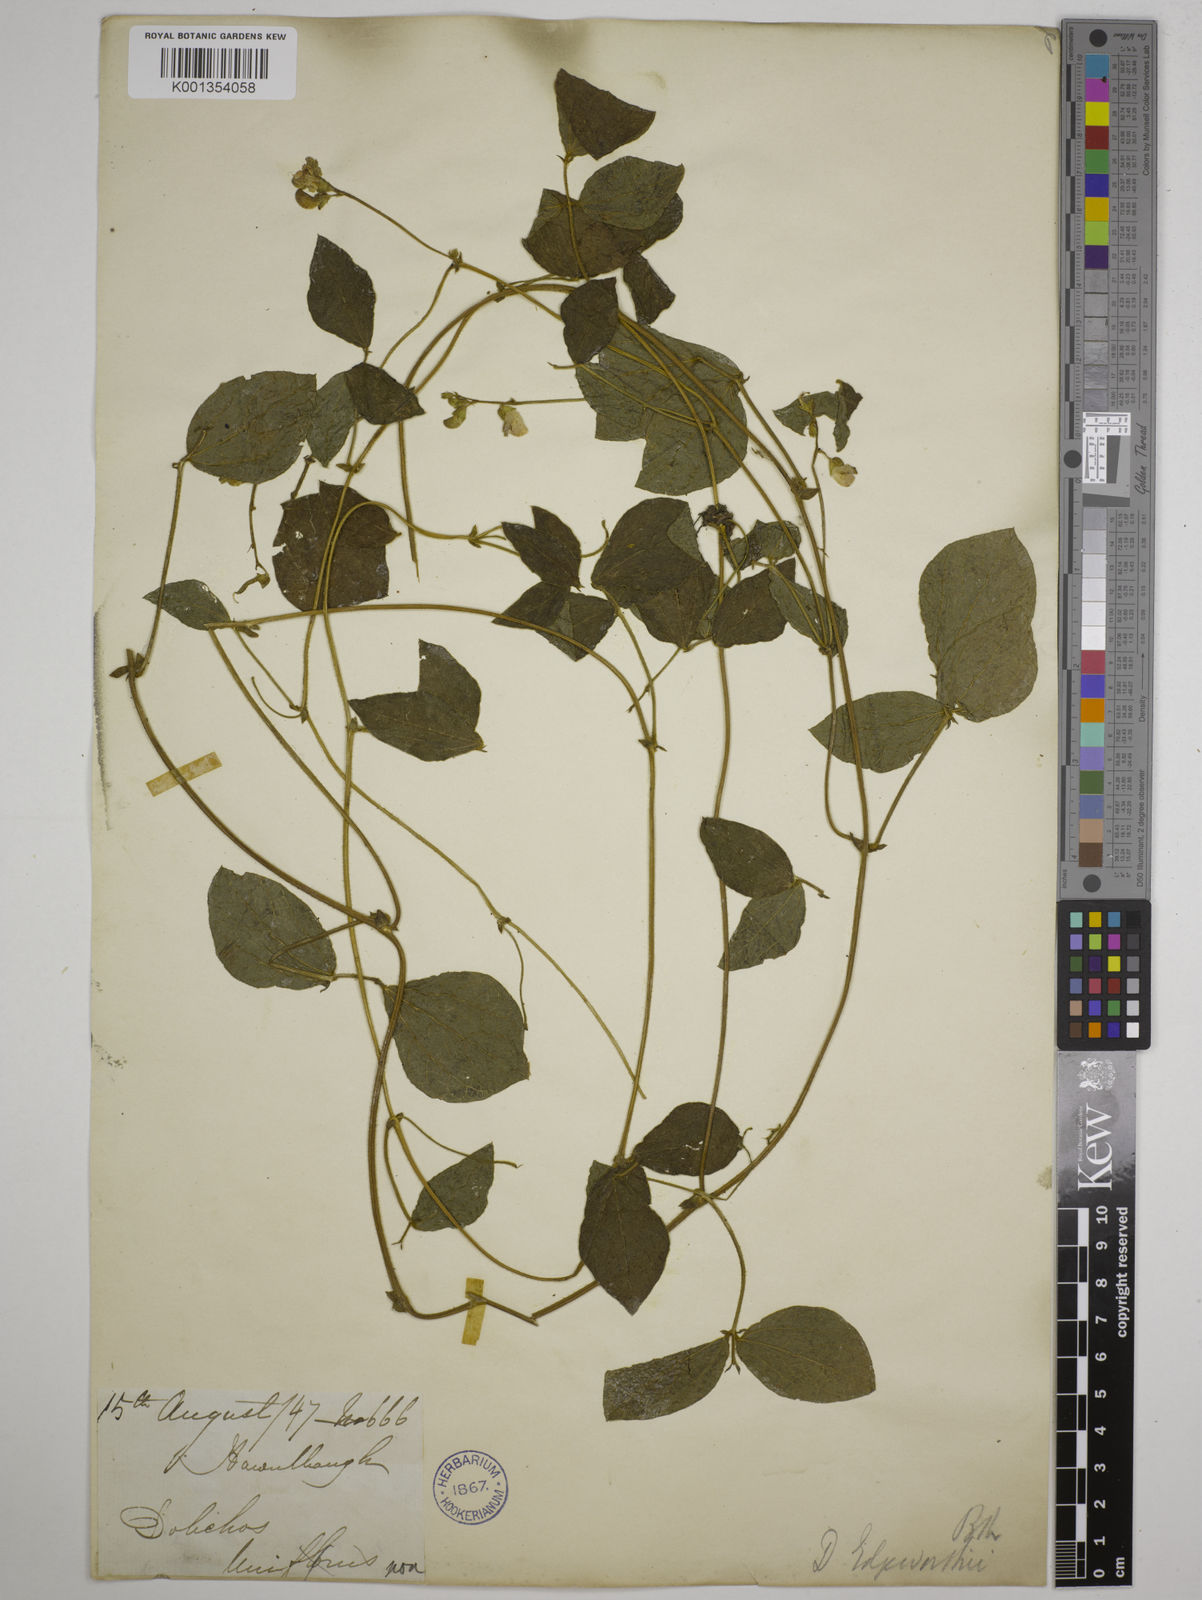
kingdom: Plantae
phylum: Tracheophyta
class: Magnoliopsida
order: Fabales
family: Fabaceae
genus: Dolichos
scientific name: Dolichos
